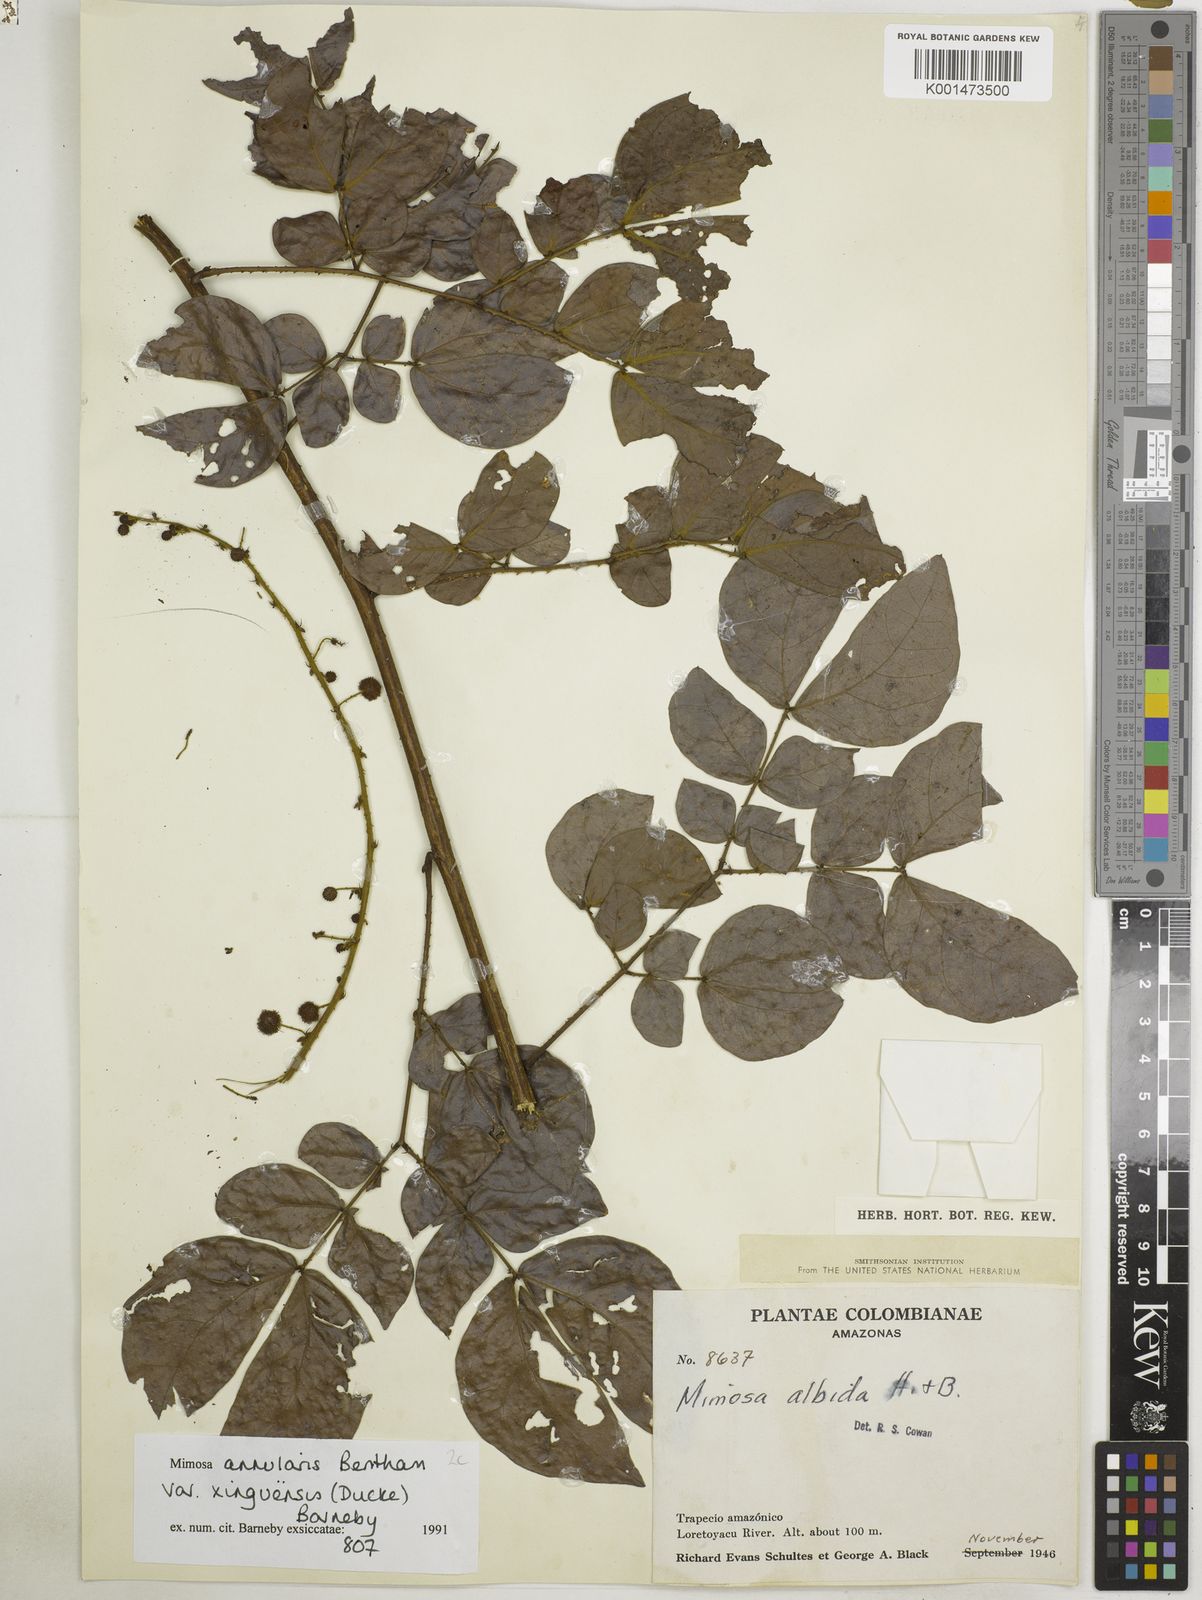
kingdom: Plantae
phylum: Tracheophyta
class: Magnoliopsida
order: Fabales
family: Fabaceae
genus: Mimosa
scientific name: Mimosa annularis
